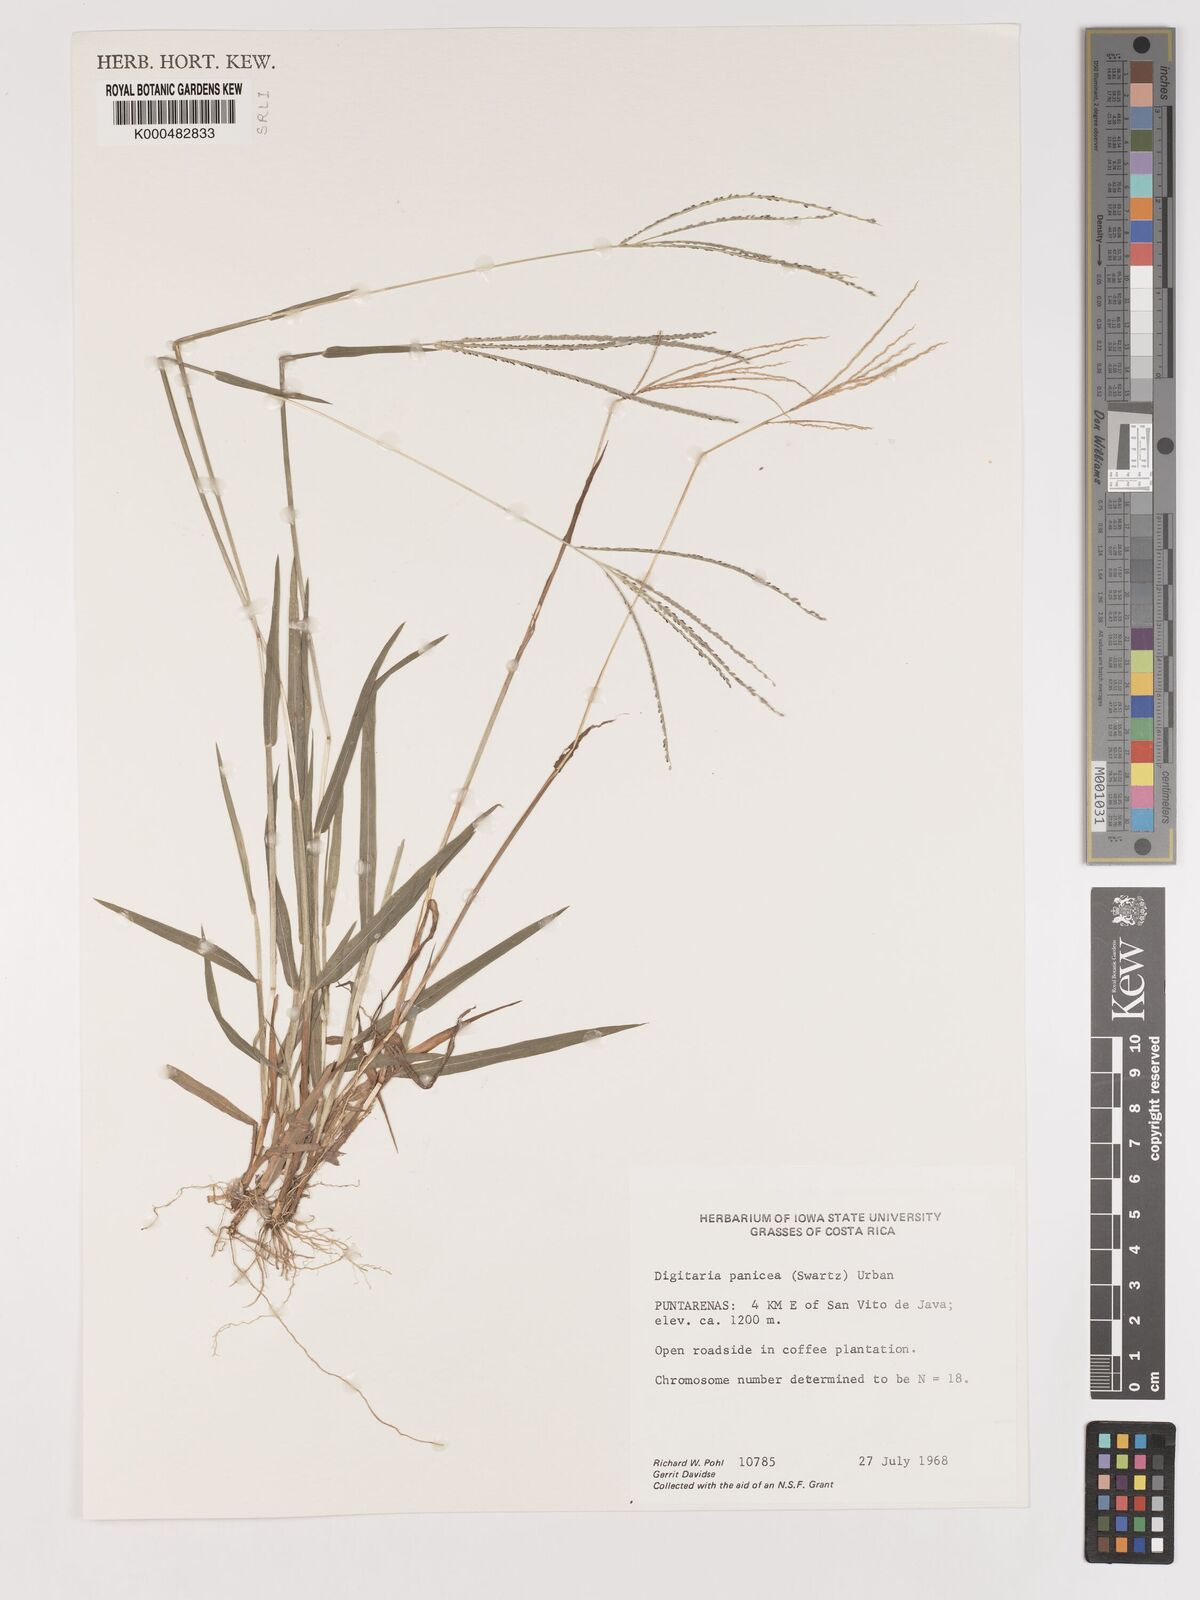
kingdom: Plantae
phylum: Tracheophyta
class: Liliopsida
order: Poales
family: Poaceae
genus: Digitaria
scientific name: Digitaria curvinervis
